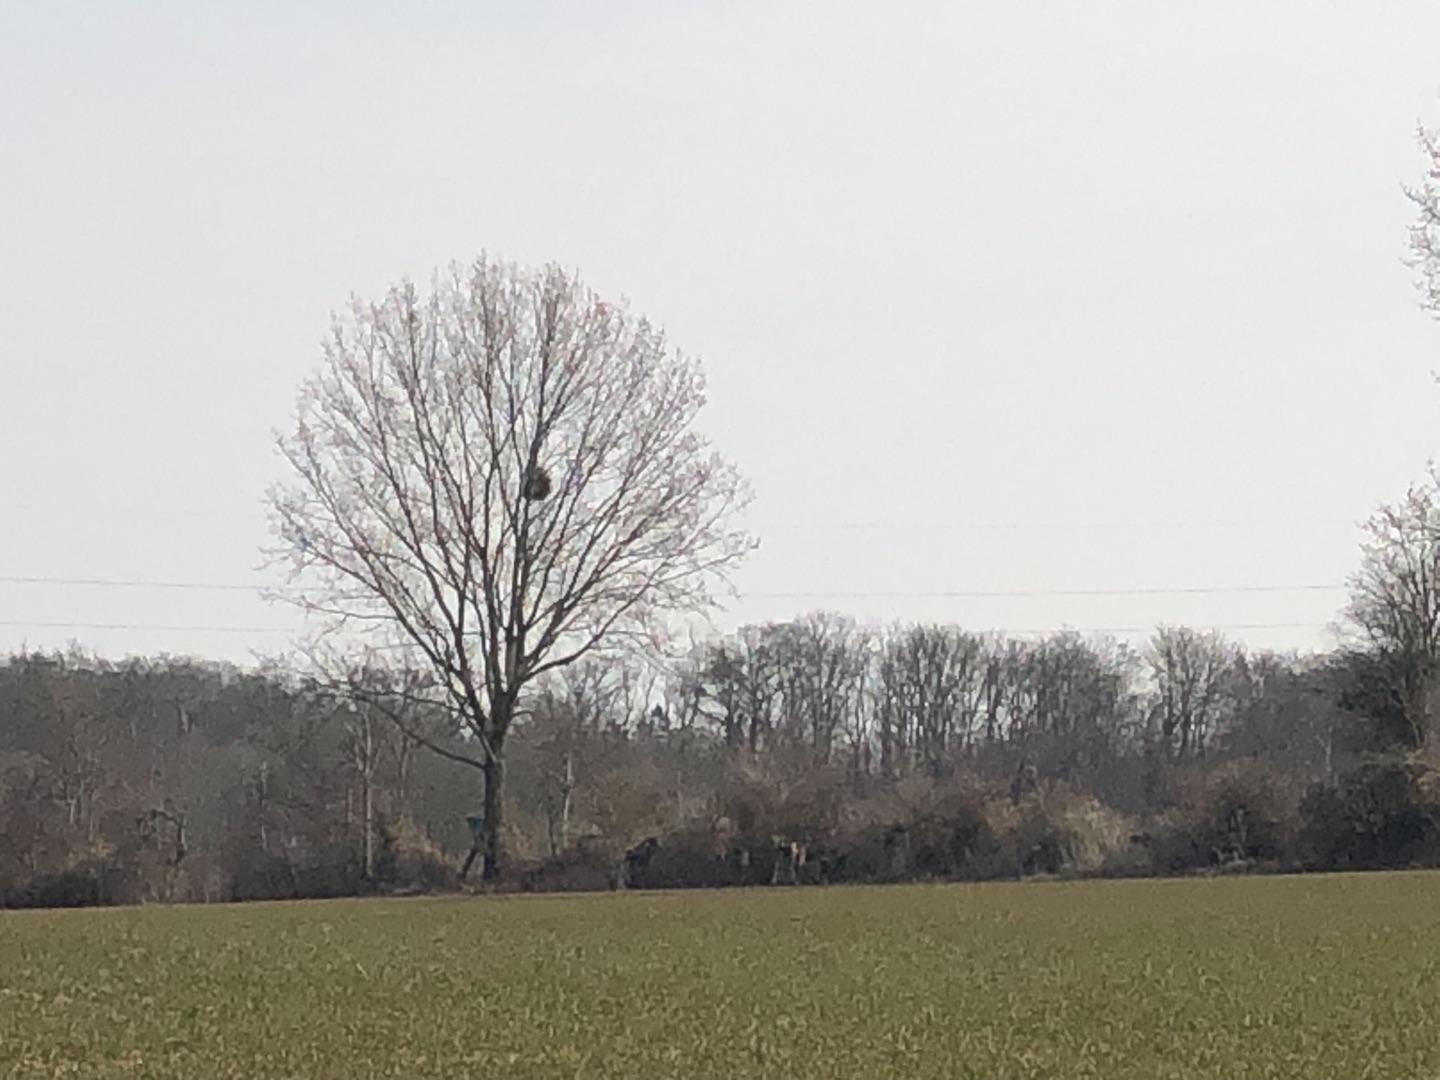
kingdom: Plantae
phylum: Tracheophyta
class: Magnoliopsida
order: Santalales
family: Viscaceae
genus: Viscum
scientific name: Viscum album
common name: Mistelten
